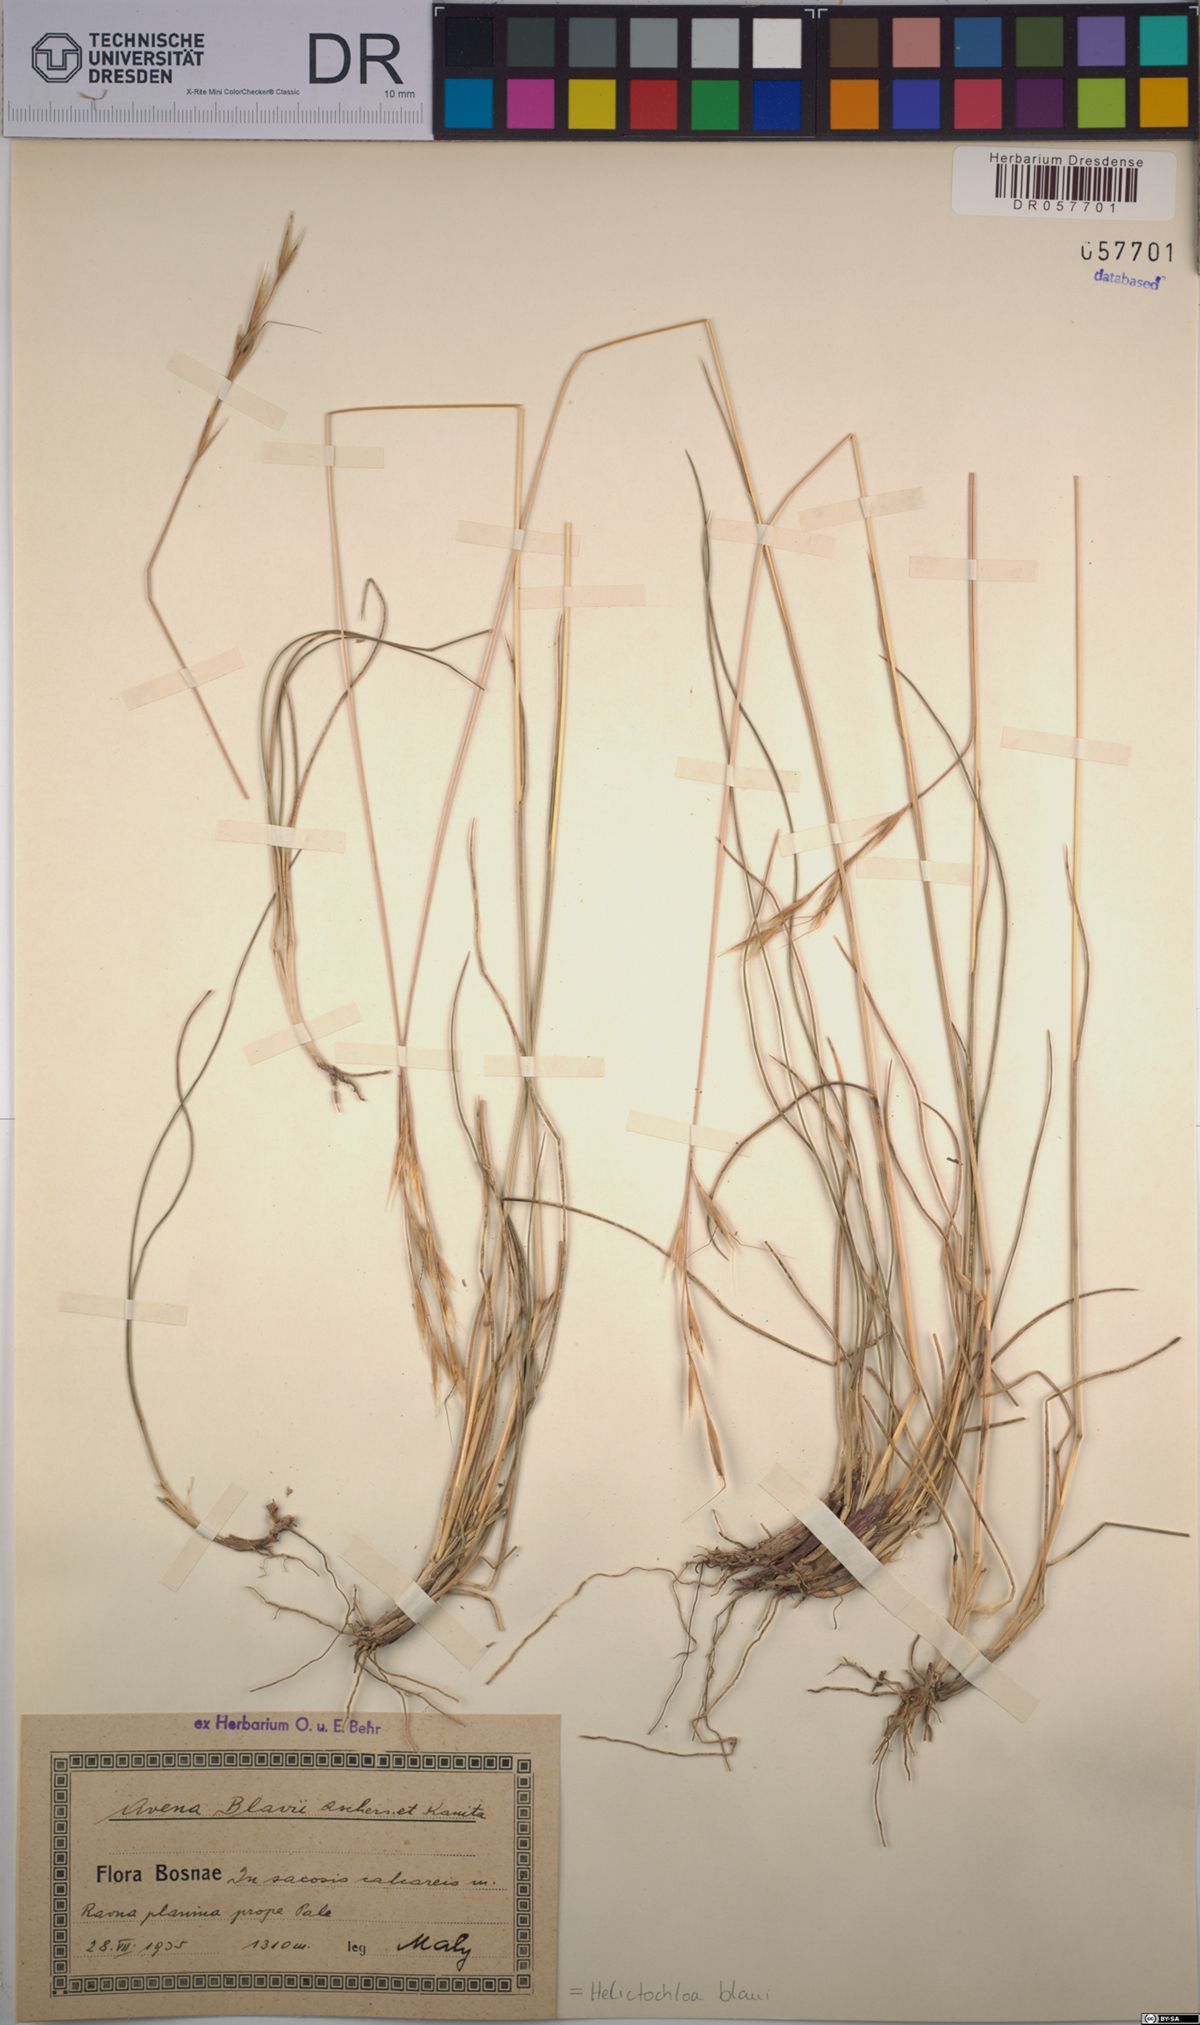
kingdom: Plantae
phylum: Tracheophyta
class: Liliopsida
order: Poales
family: Poaceae
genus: Helictochloa
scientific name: Helictochloa blaui
